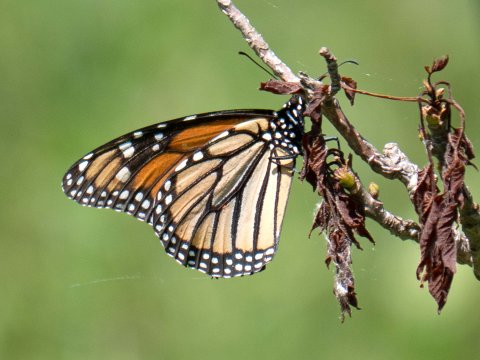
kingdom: Animalia
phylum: Arthropoda
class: Insecta
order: Lepidoptera
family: Nymphalidae
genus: Danaus
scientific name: Danaus plexippus
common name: Monarch
